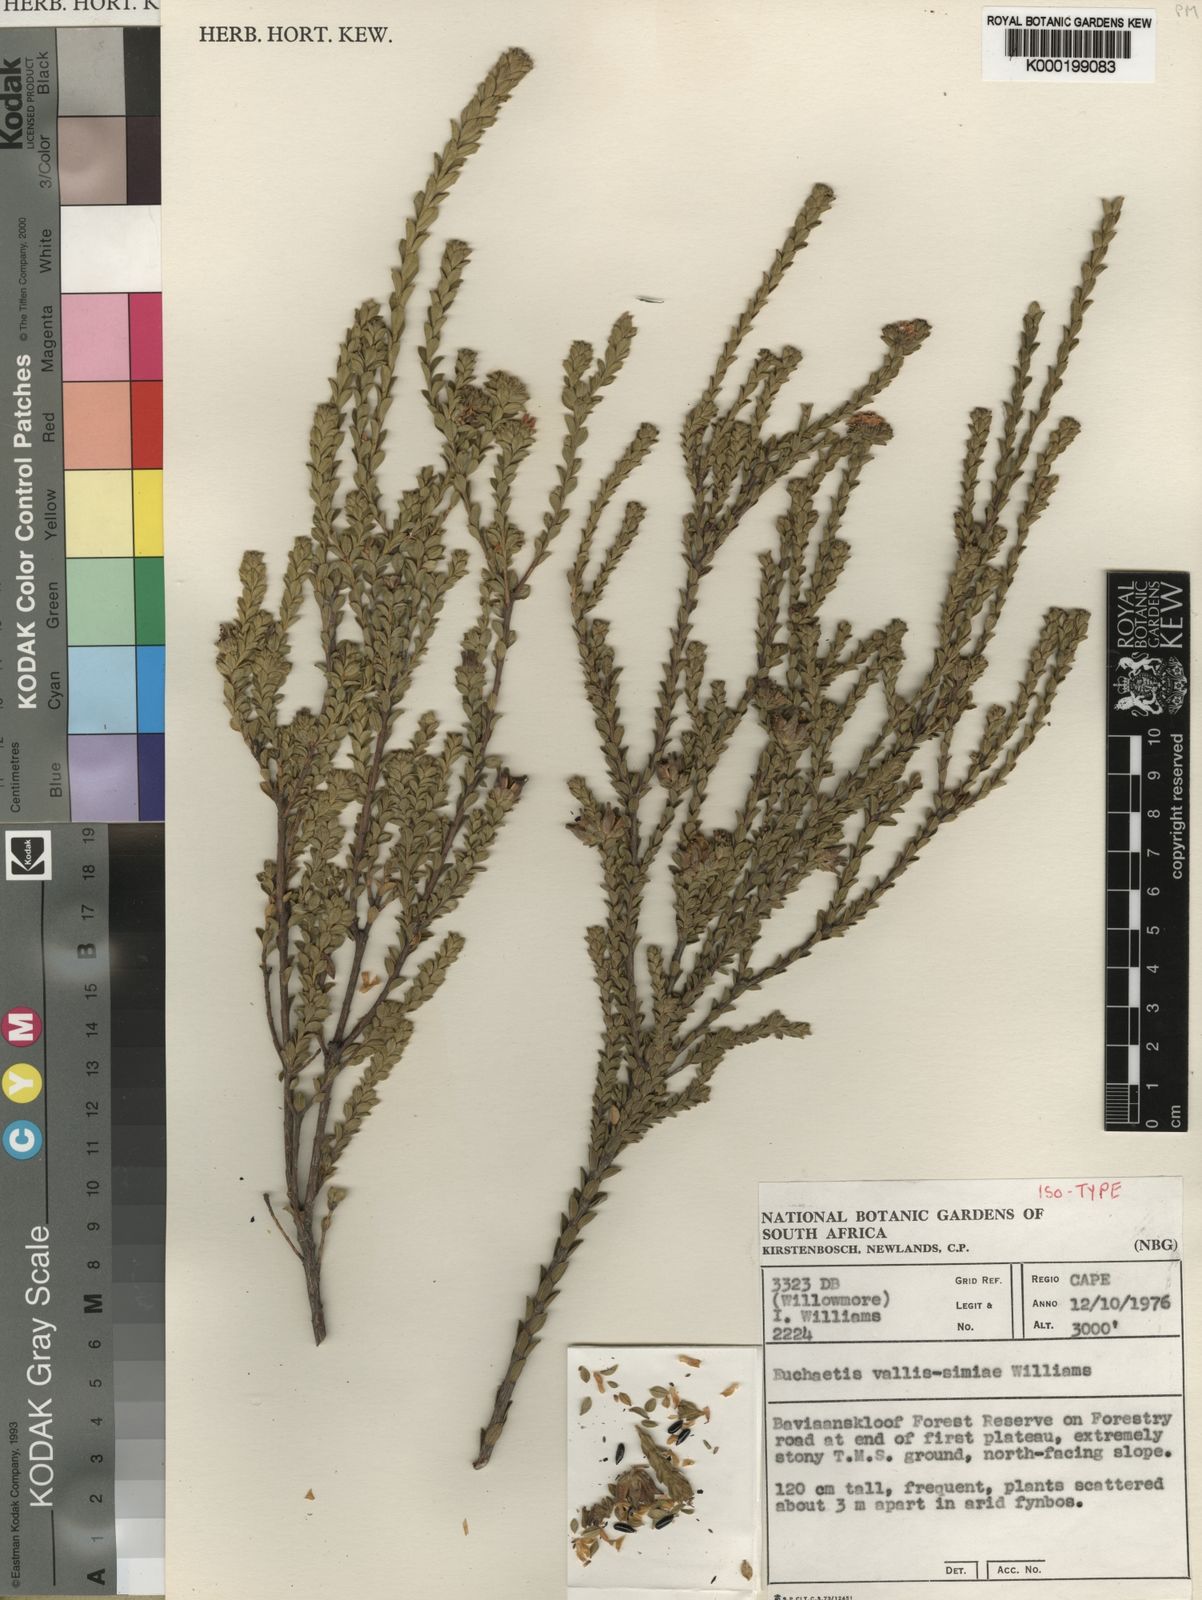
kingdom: Plantae
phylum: Tracheophyta
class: Magnoliopsida
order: Sapindales
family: Rutaceae
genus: Euchaetis
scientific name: Euchaetis vallis-simiae
